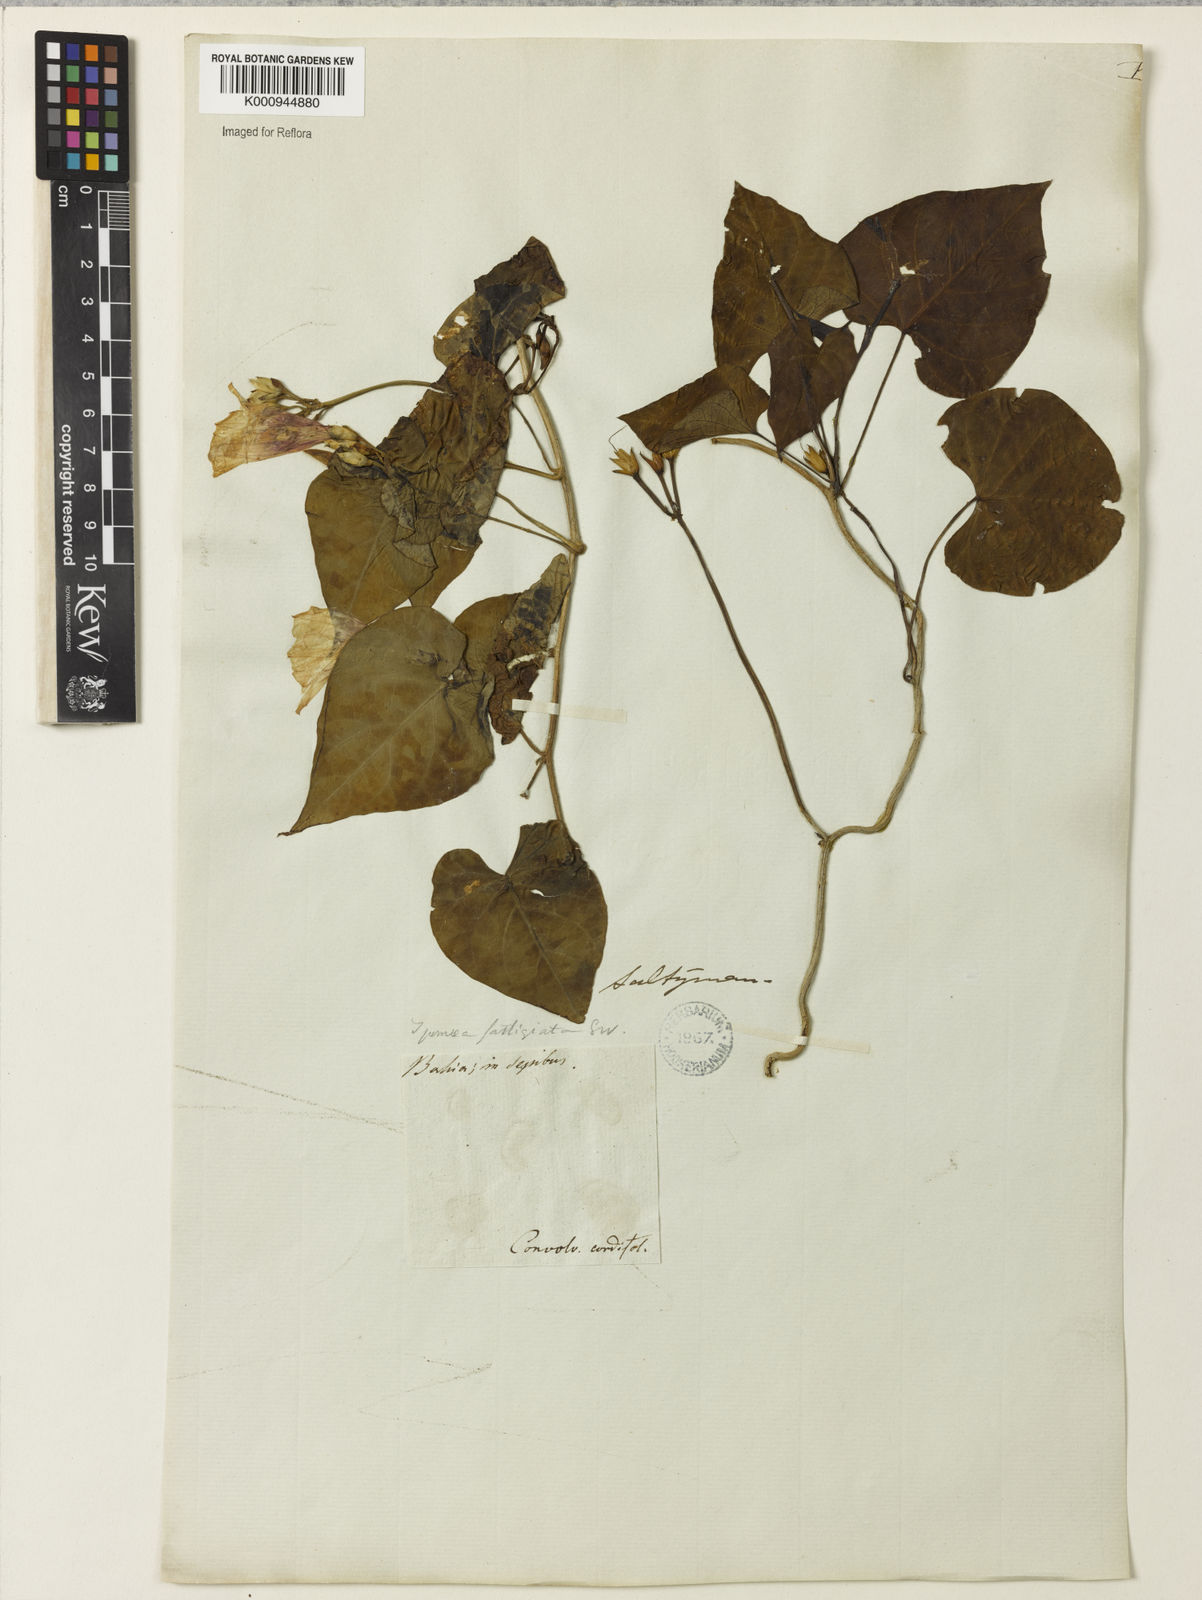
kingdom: Plantae
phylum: Tracheophyta
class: Magnoliopsida
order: Solanales
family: Convolvulaceae
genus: Ipomoea
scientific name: Ipomoea tiliacea
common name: Wild potato vine
